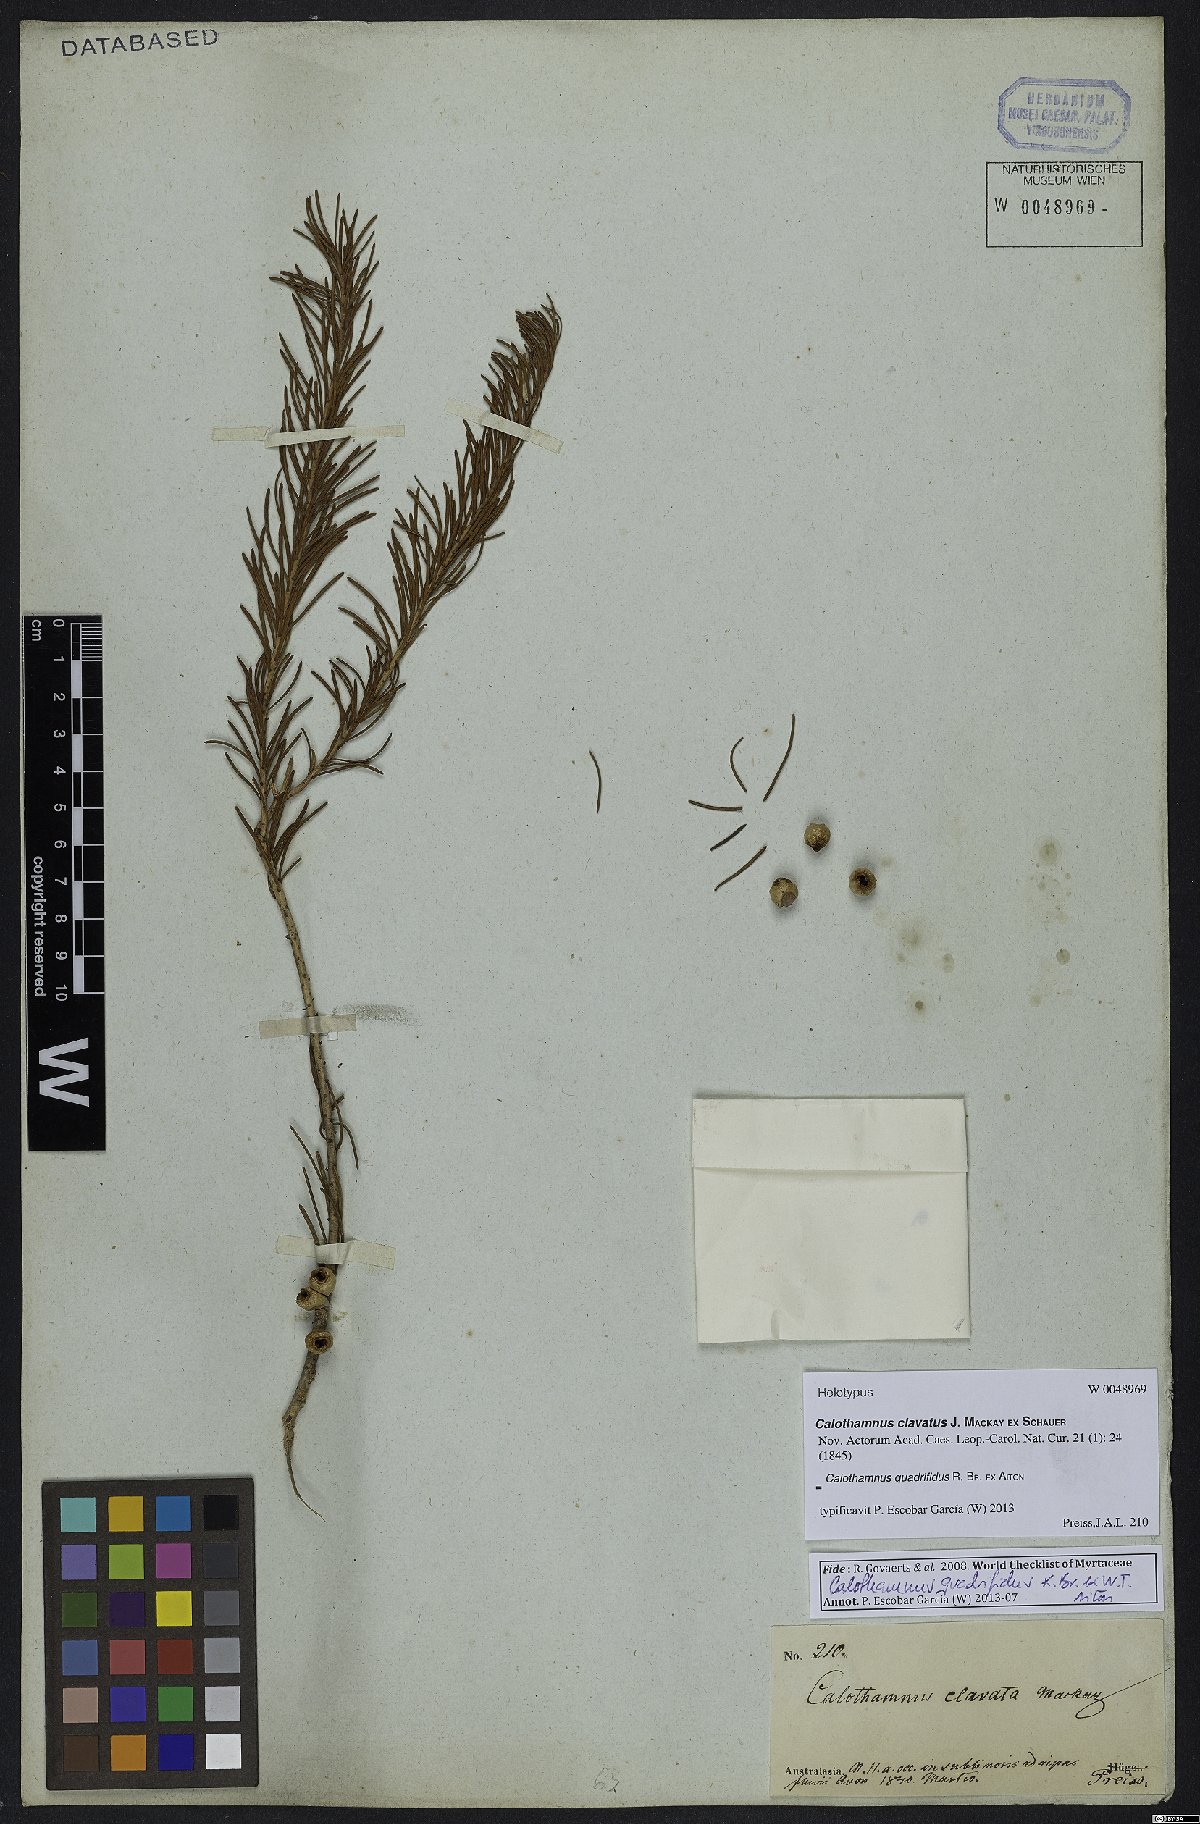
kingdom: Plantae
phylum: Tracheophyta
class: Magnoliopsida
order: Myrtales
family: Myrtaceae
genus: Melaleuca
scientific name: Melaleuca quadrifida
